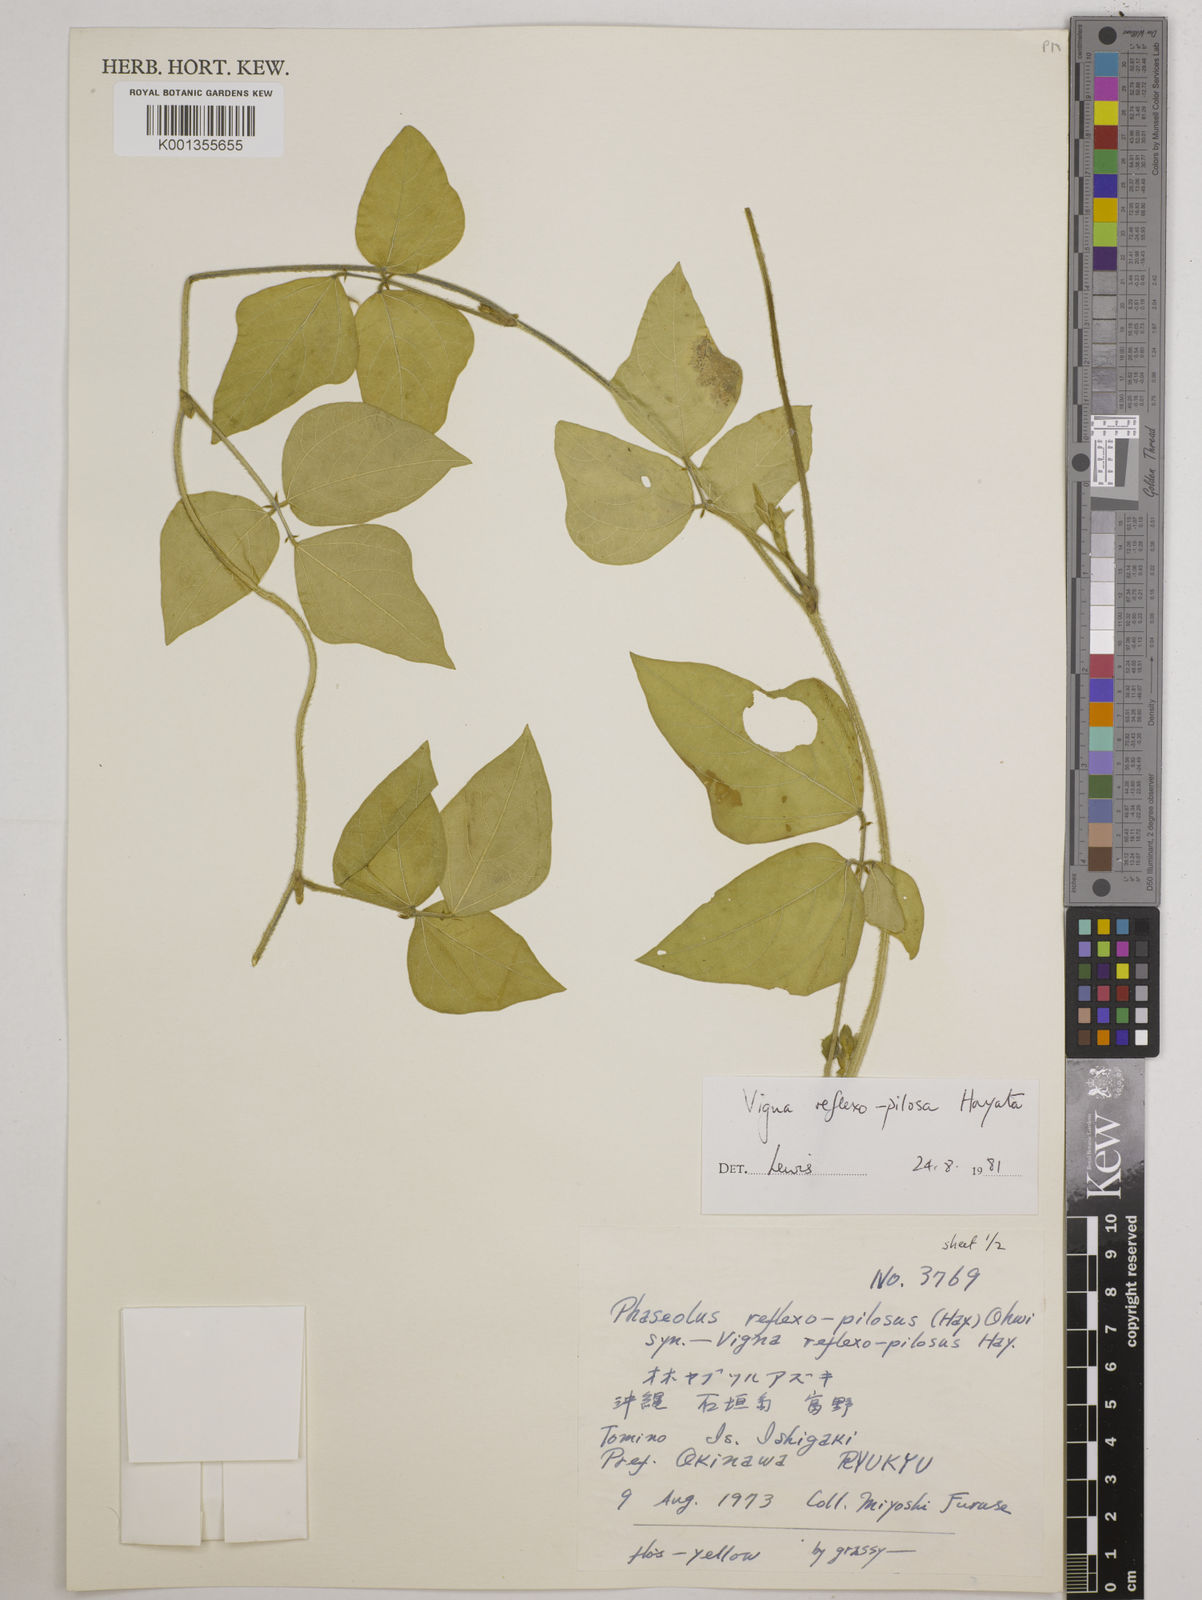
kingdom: Plantae
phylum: Tracheophyta
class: Magnoliopsida
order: Fabales
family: Fabaceae
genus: Vigna
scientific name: Vigna reflexopilosa
